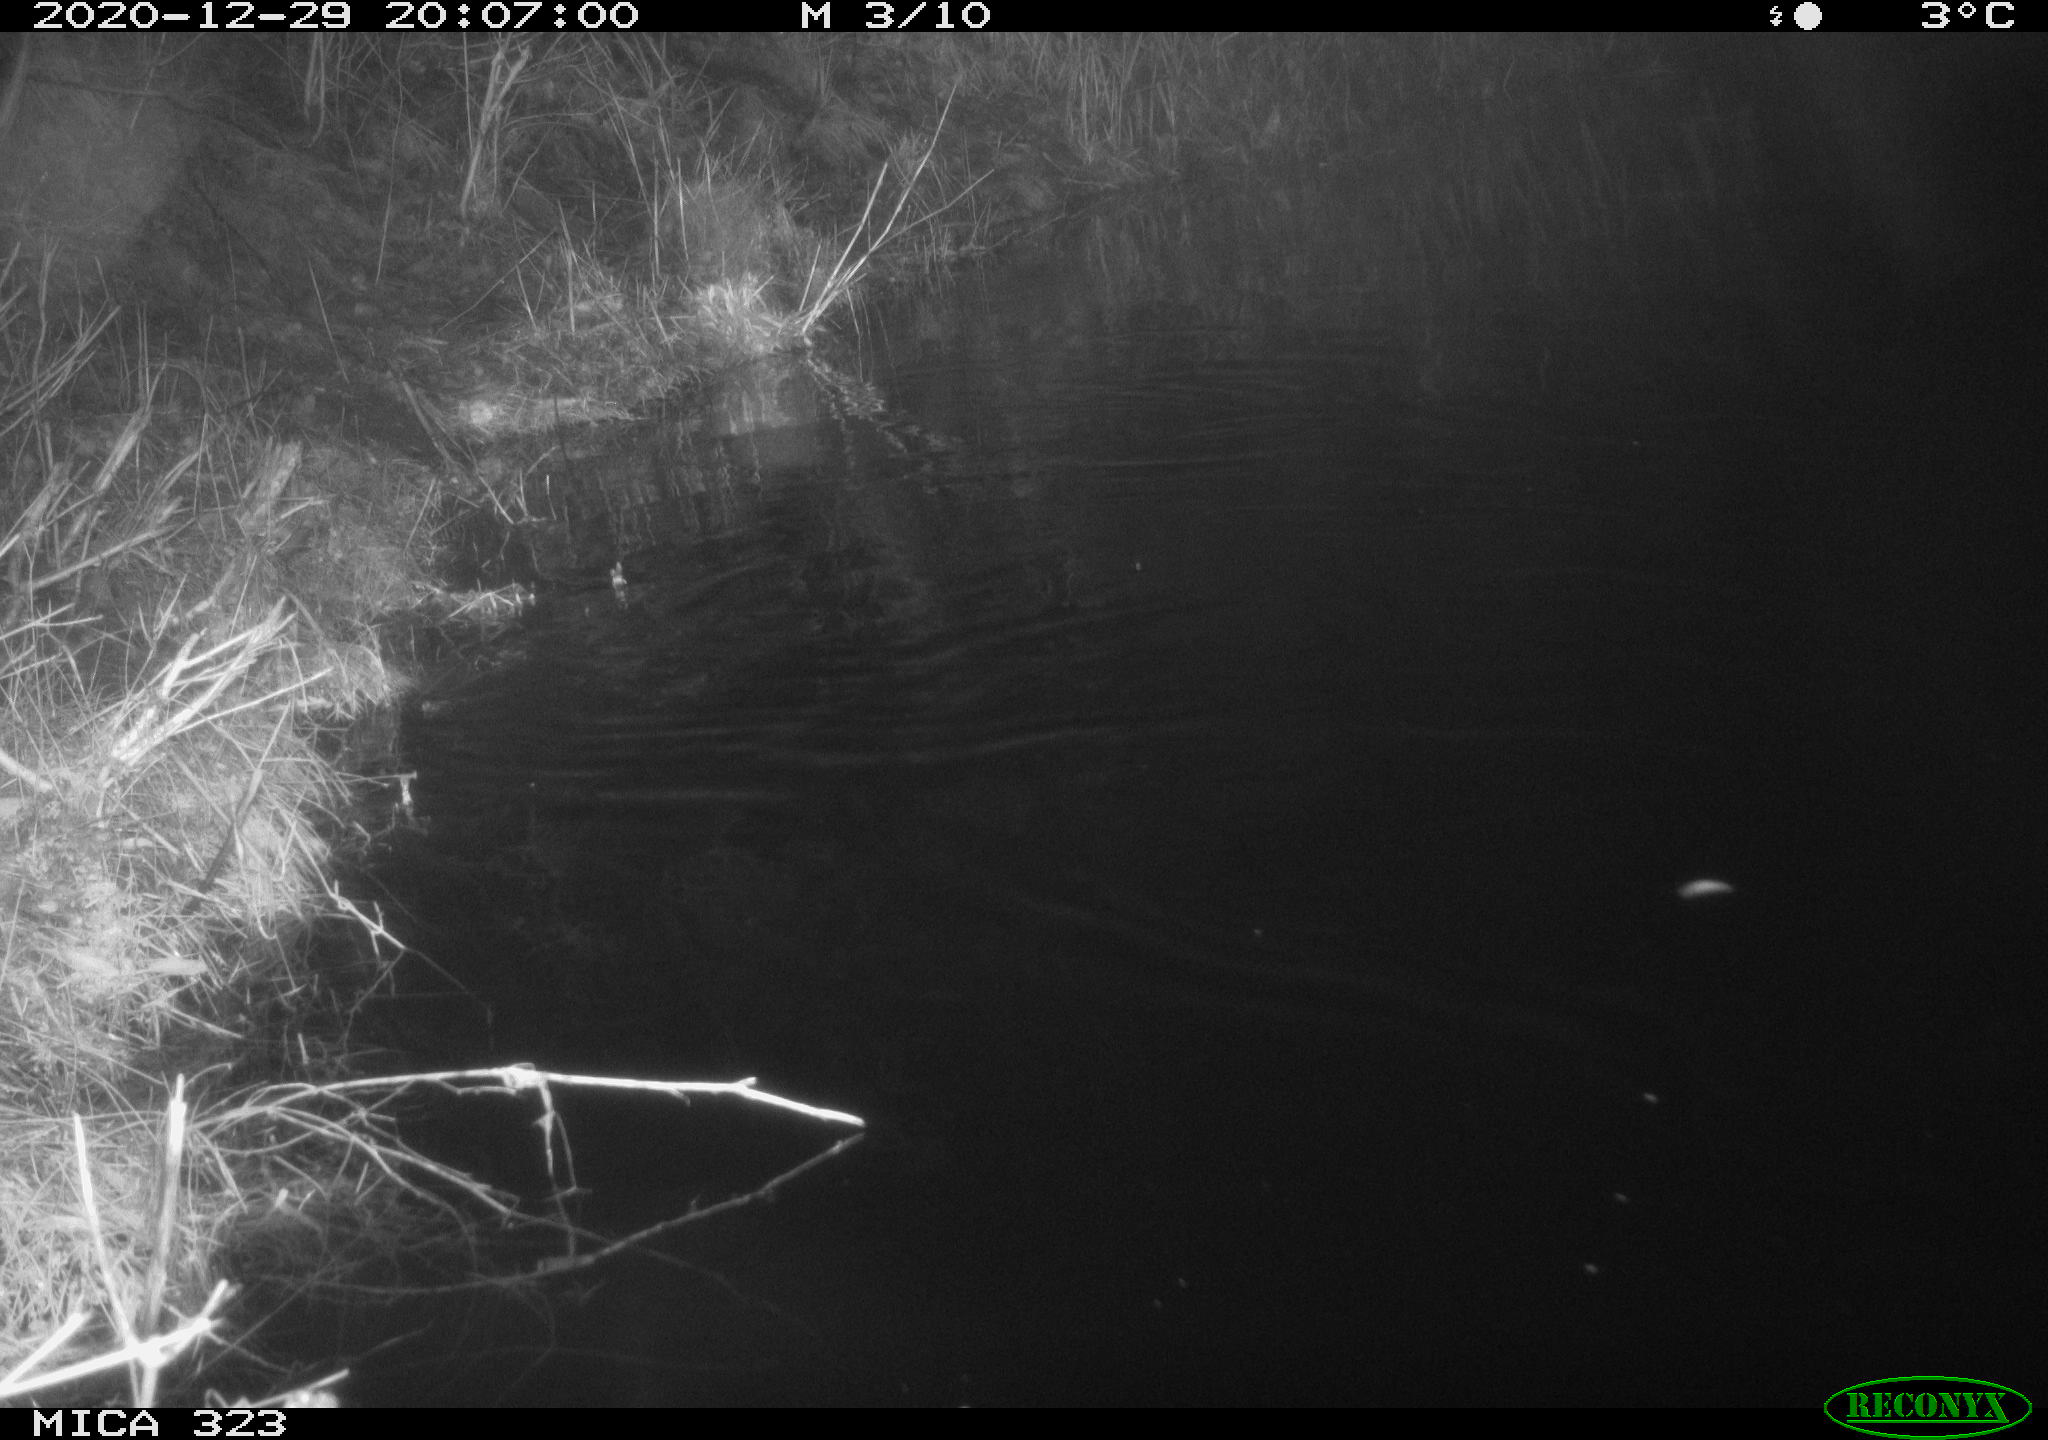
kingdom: Animalia
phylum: Chordata
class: Mammalia
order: Rodentia
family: Myocastoridae
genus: Myocastor
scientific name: Myocastor coypus
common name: Coypu
